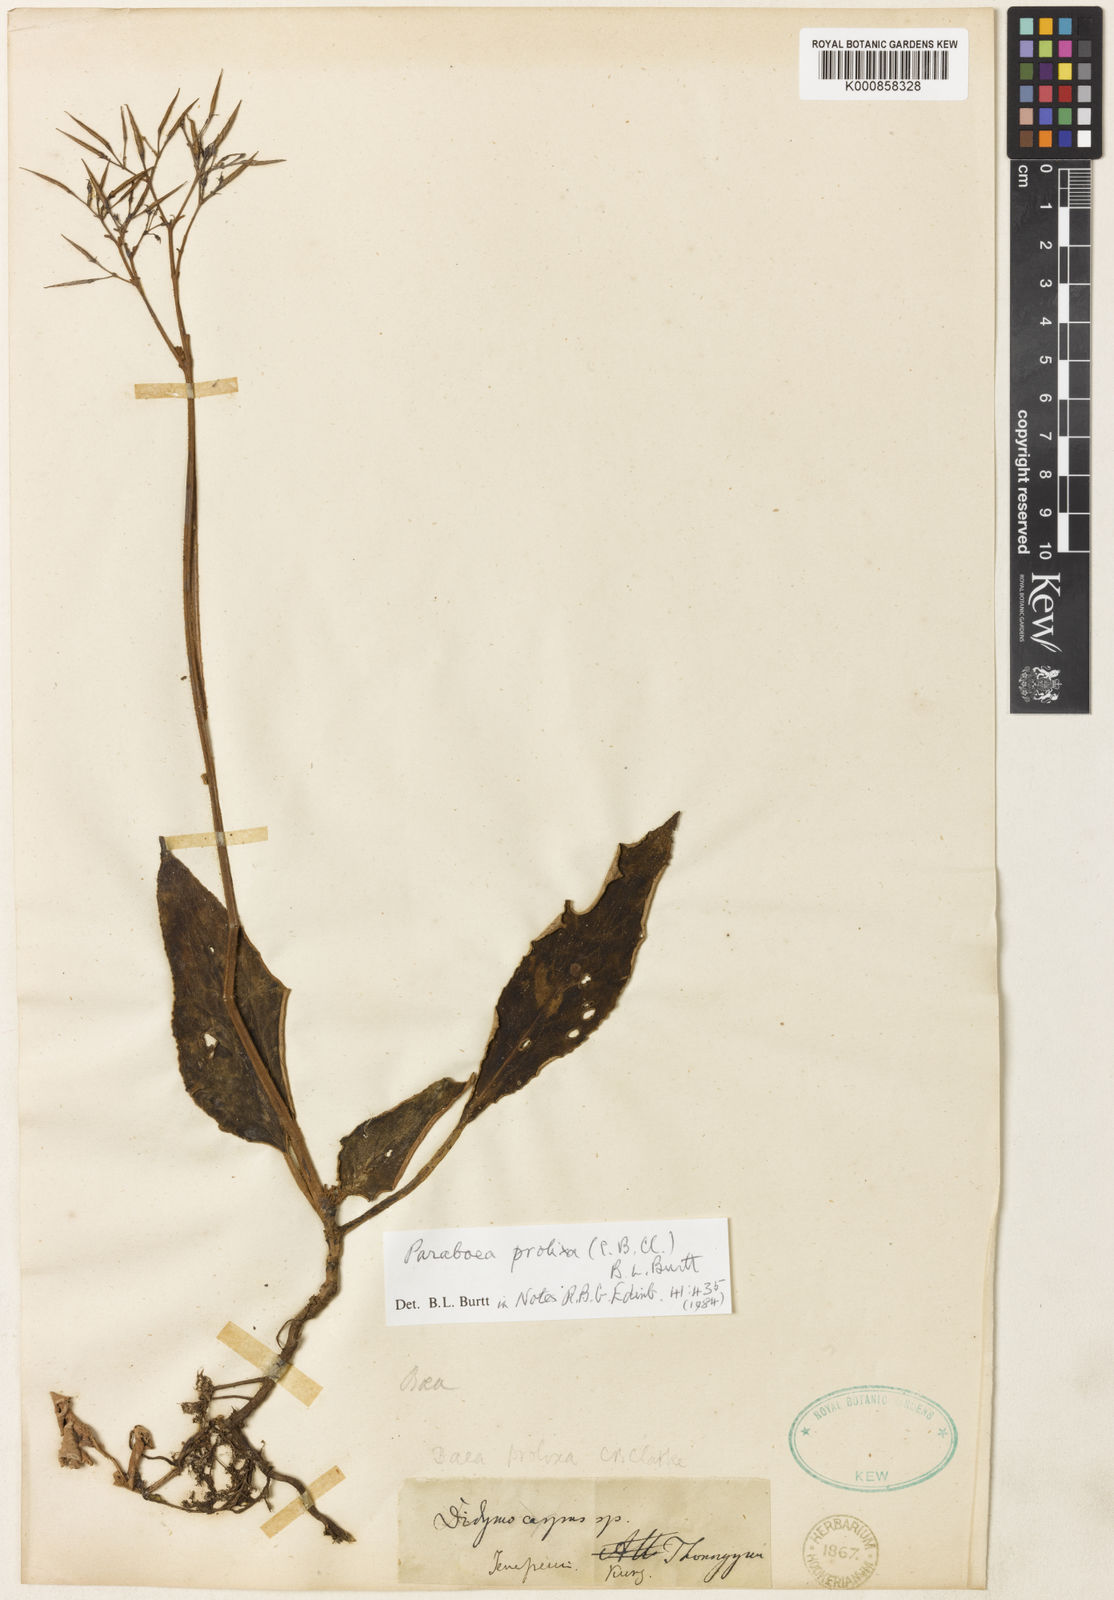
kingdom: Plantae
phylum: Tracheophyta
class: Magnoliopsida
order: Lamiales
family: Gesneriaceae
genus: Paraboea
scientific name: Paraboea prolixa
